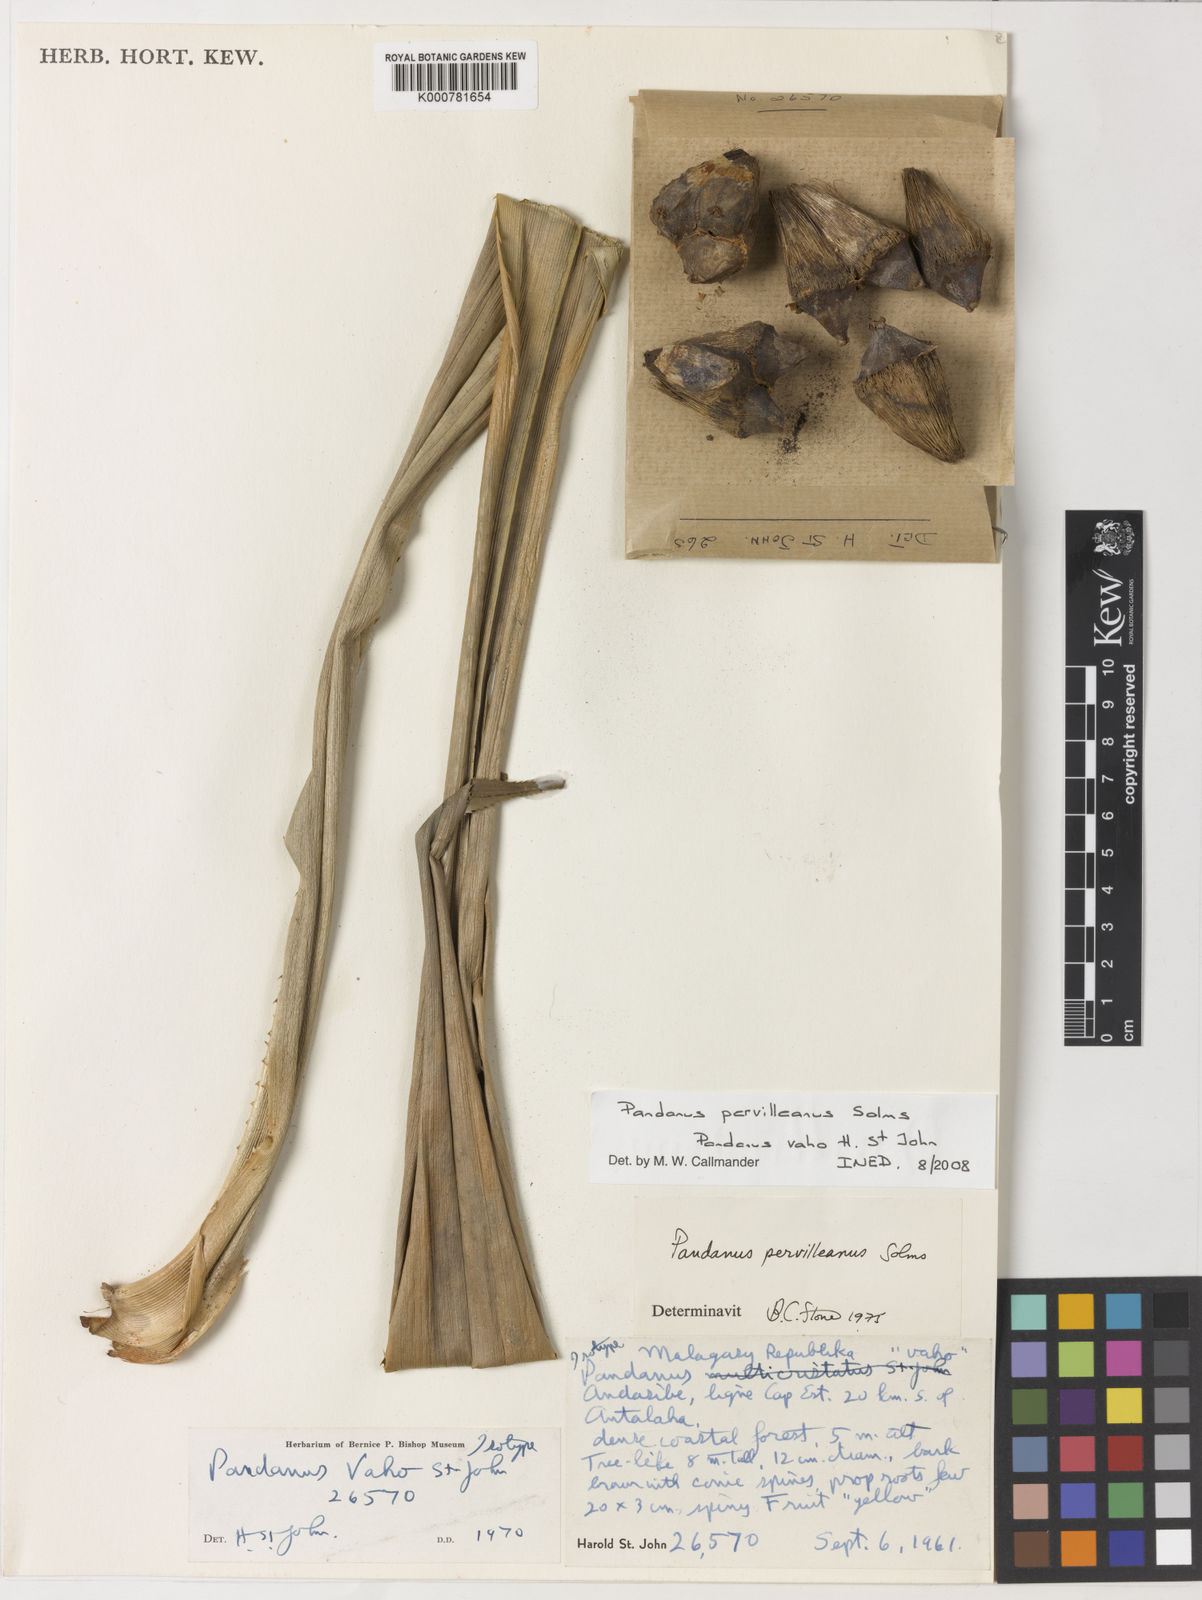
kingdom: Plantae
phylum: Tracheophyta
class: Liliopsida
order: Pandanales
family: Pandanaceae
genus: Pandanus
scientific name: Pandanus
